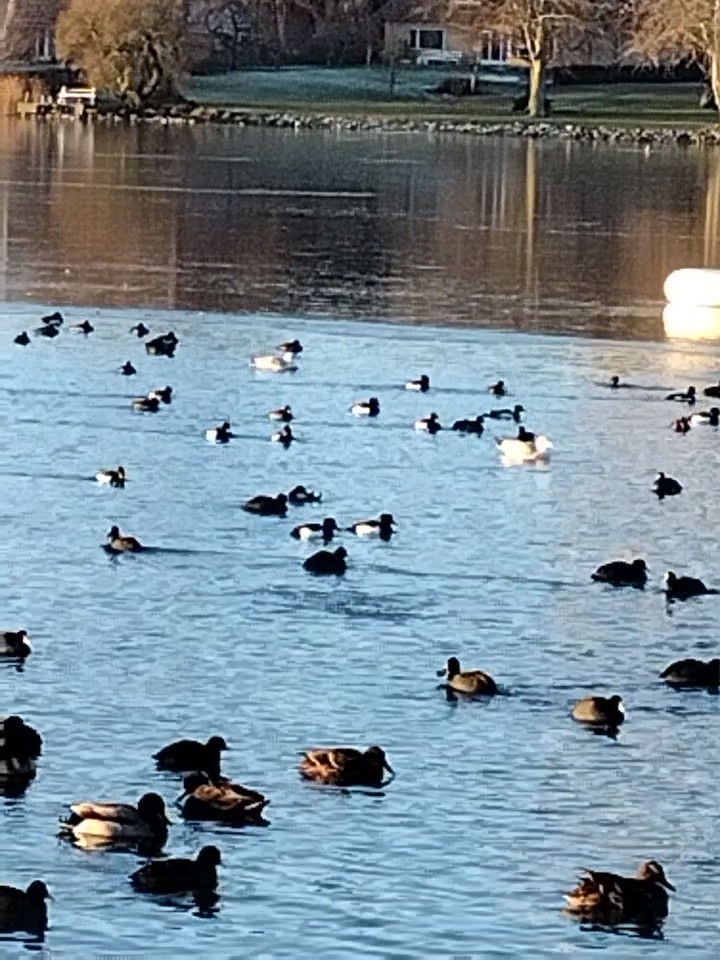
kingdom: Animalia
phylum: Chordata
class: Aves
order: Anseriformes
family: Anatidae
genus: Aythya
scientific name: Aythya fuligula
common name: Troldand
